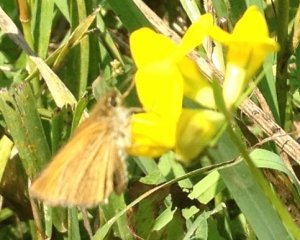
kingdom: Animalia
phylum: Arthropoda
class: Insecta
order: Lepidoptera
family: Hesperiidae
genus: Thymelicus
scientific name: Thymelicus lineola
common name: European Skipper
